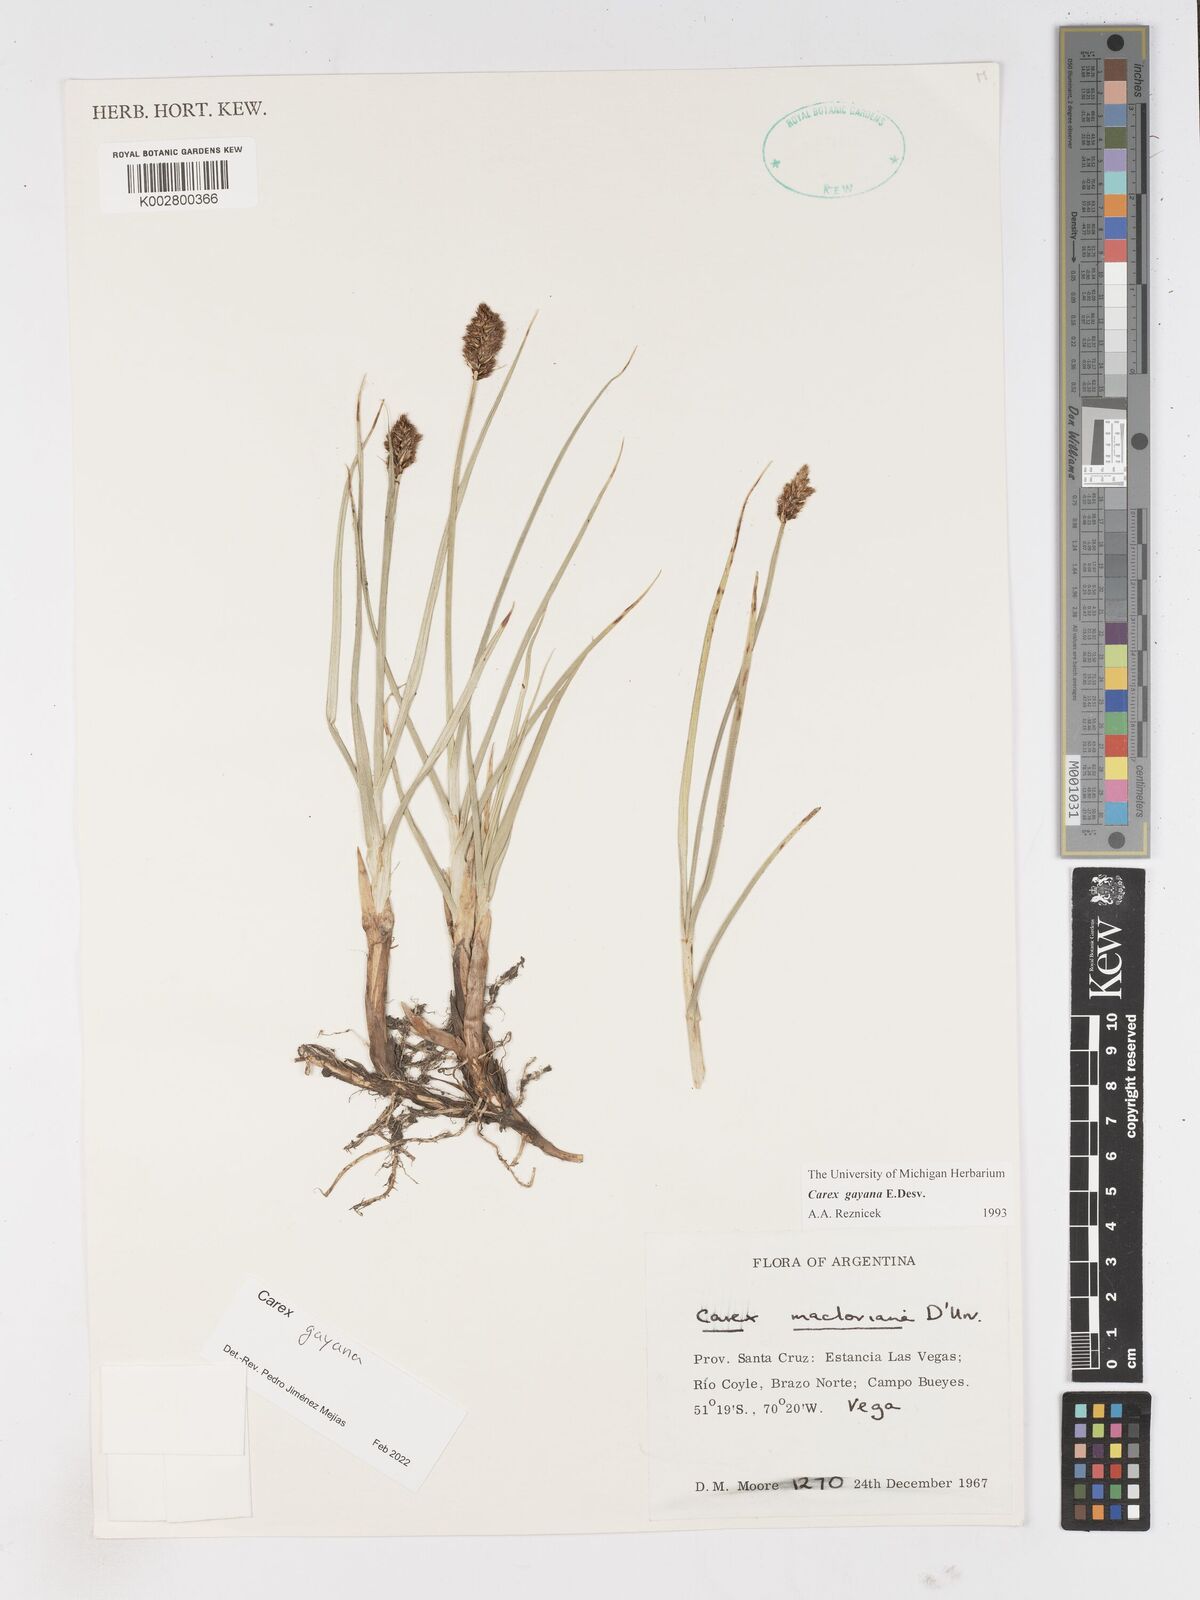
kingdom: Plantae
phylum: Tracheophyta
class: Liliopsida
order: Poales
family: Cyperaceae
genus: Carex
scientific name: Carex gayana
